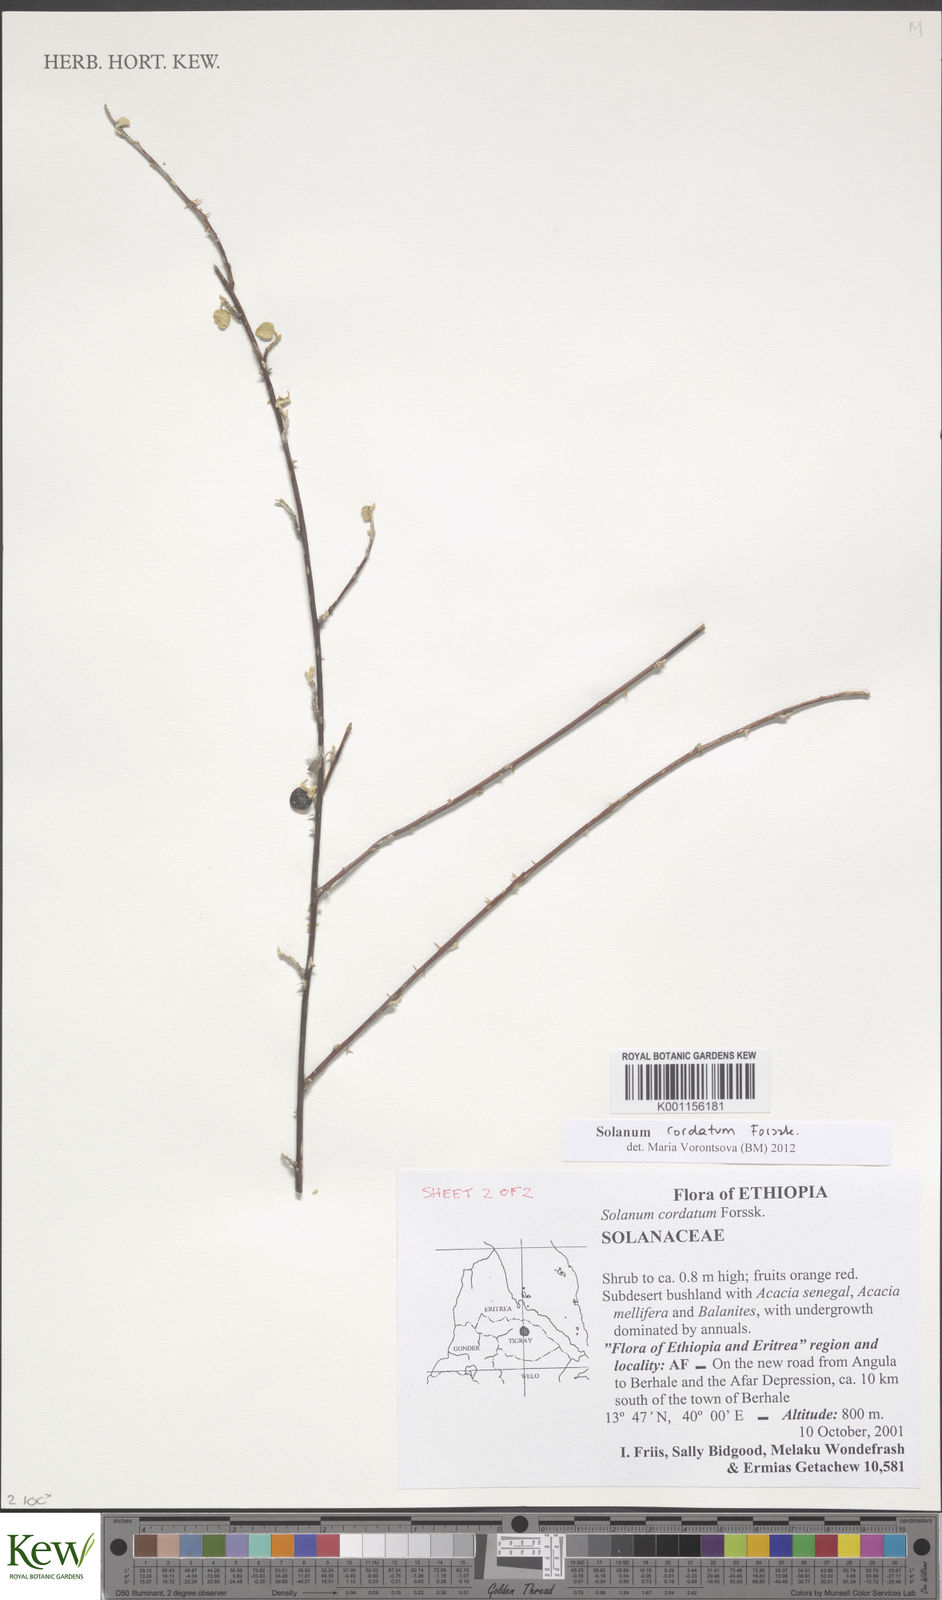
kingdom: Plantae
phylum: Tracheophyta
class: Magnoliopsida
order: Solanales
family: Solanaceae
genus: Solanum
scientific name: Solanum cordatum
